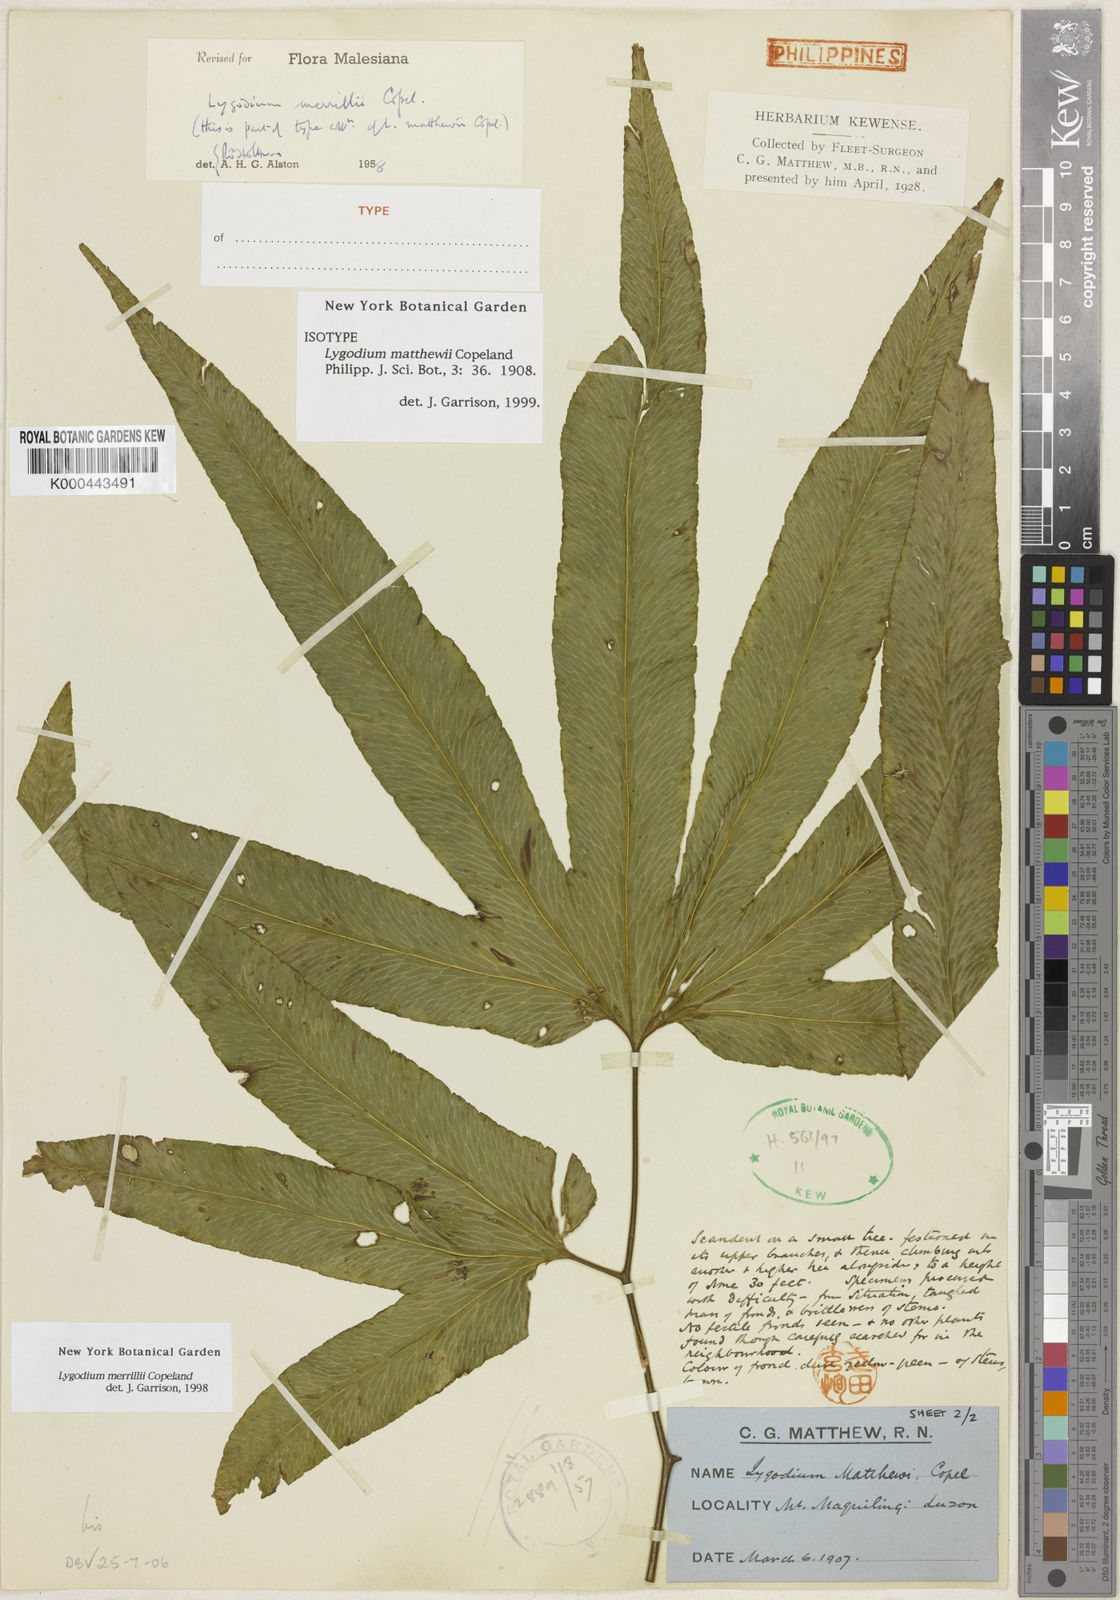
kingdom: Plantae
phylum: Tracheophyta
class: Polypodiopsida
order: Schizaeales
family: Lygodiaceae
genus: Lygodium
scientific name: Lygodium merrillii
